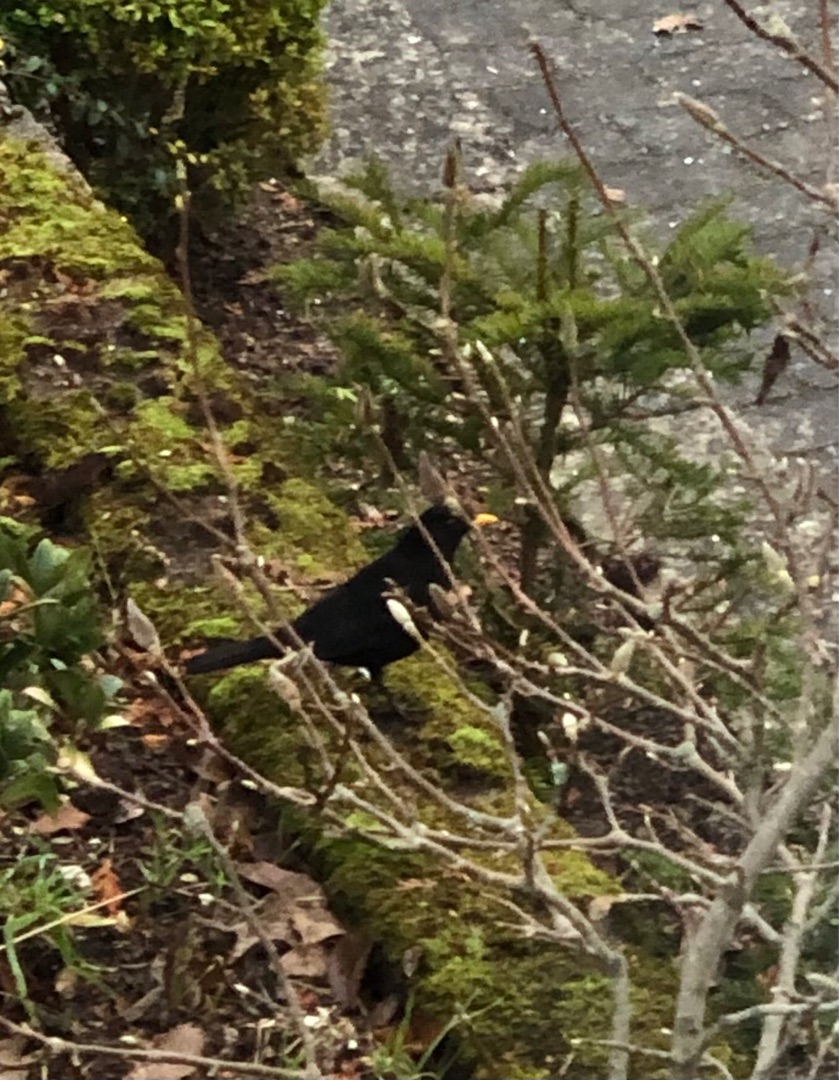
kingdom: Animalia
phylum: Chordata
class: Aves
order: Passeriformes
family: Turdidae
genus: Turdus
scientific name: Turdus merula
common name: Solsort
